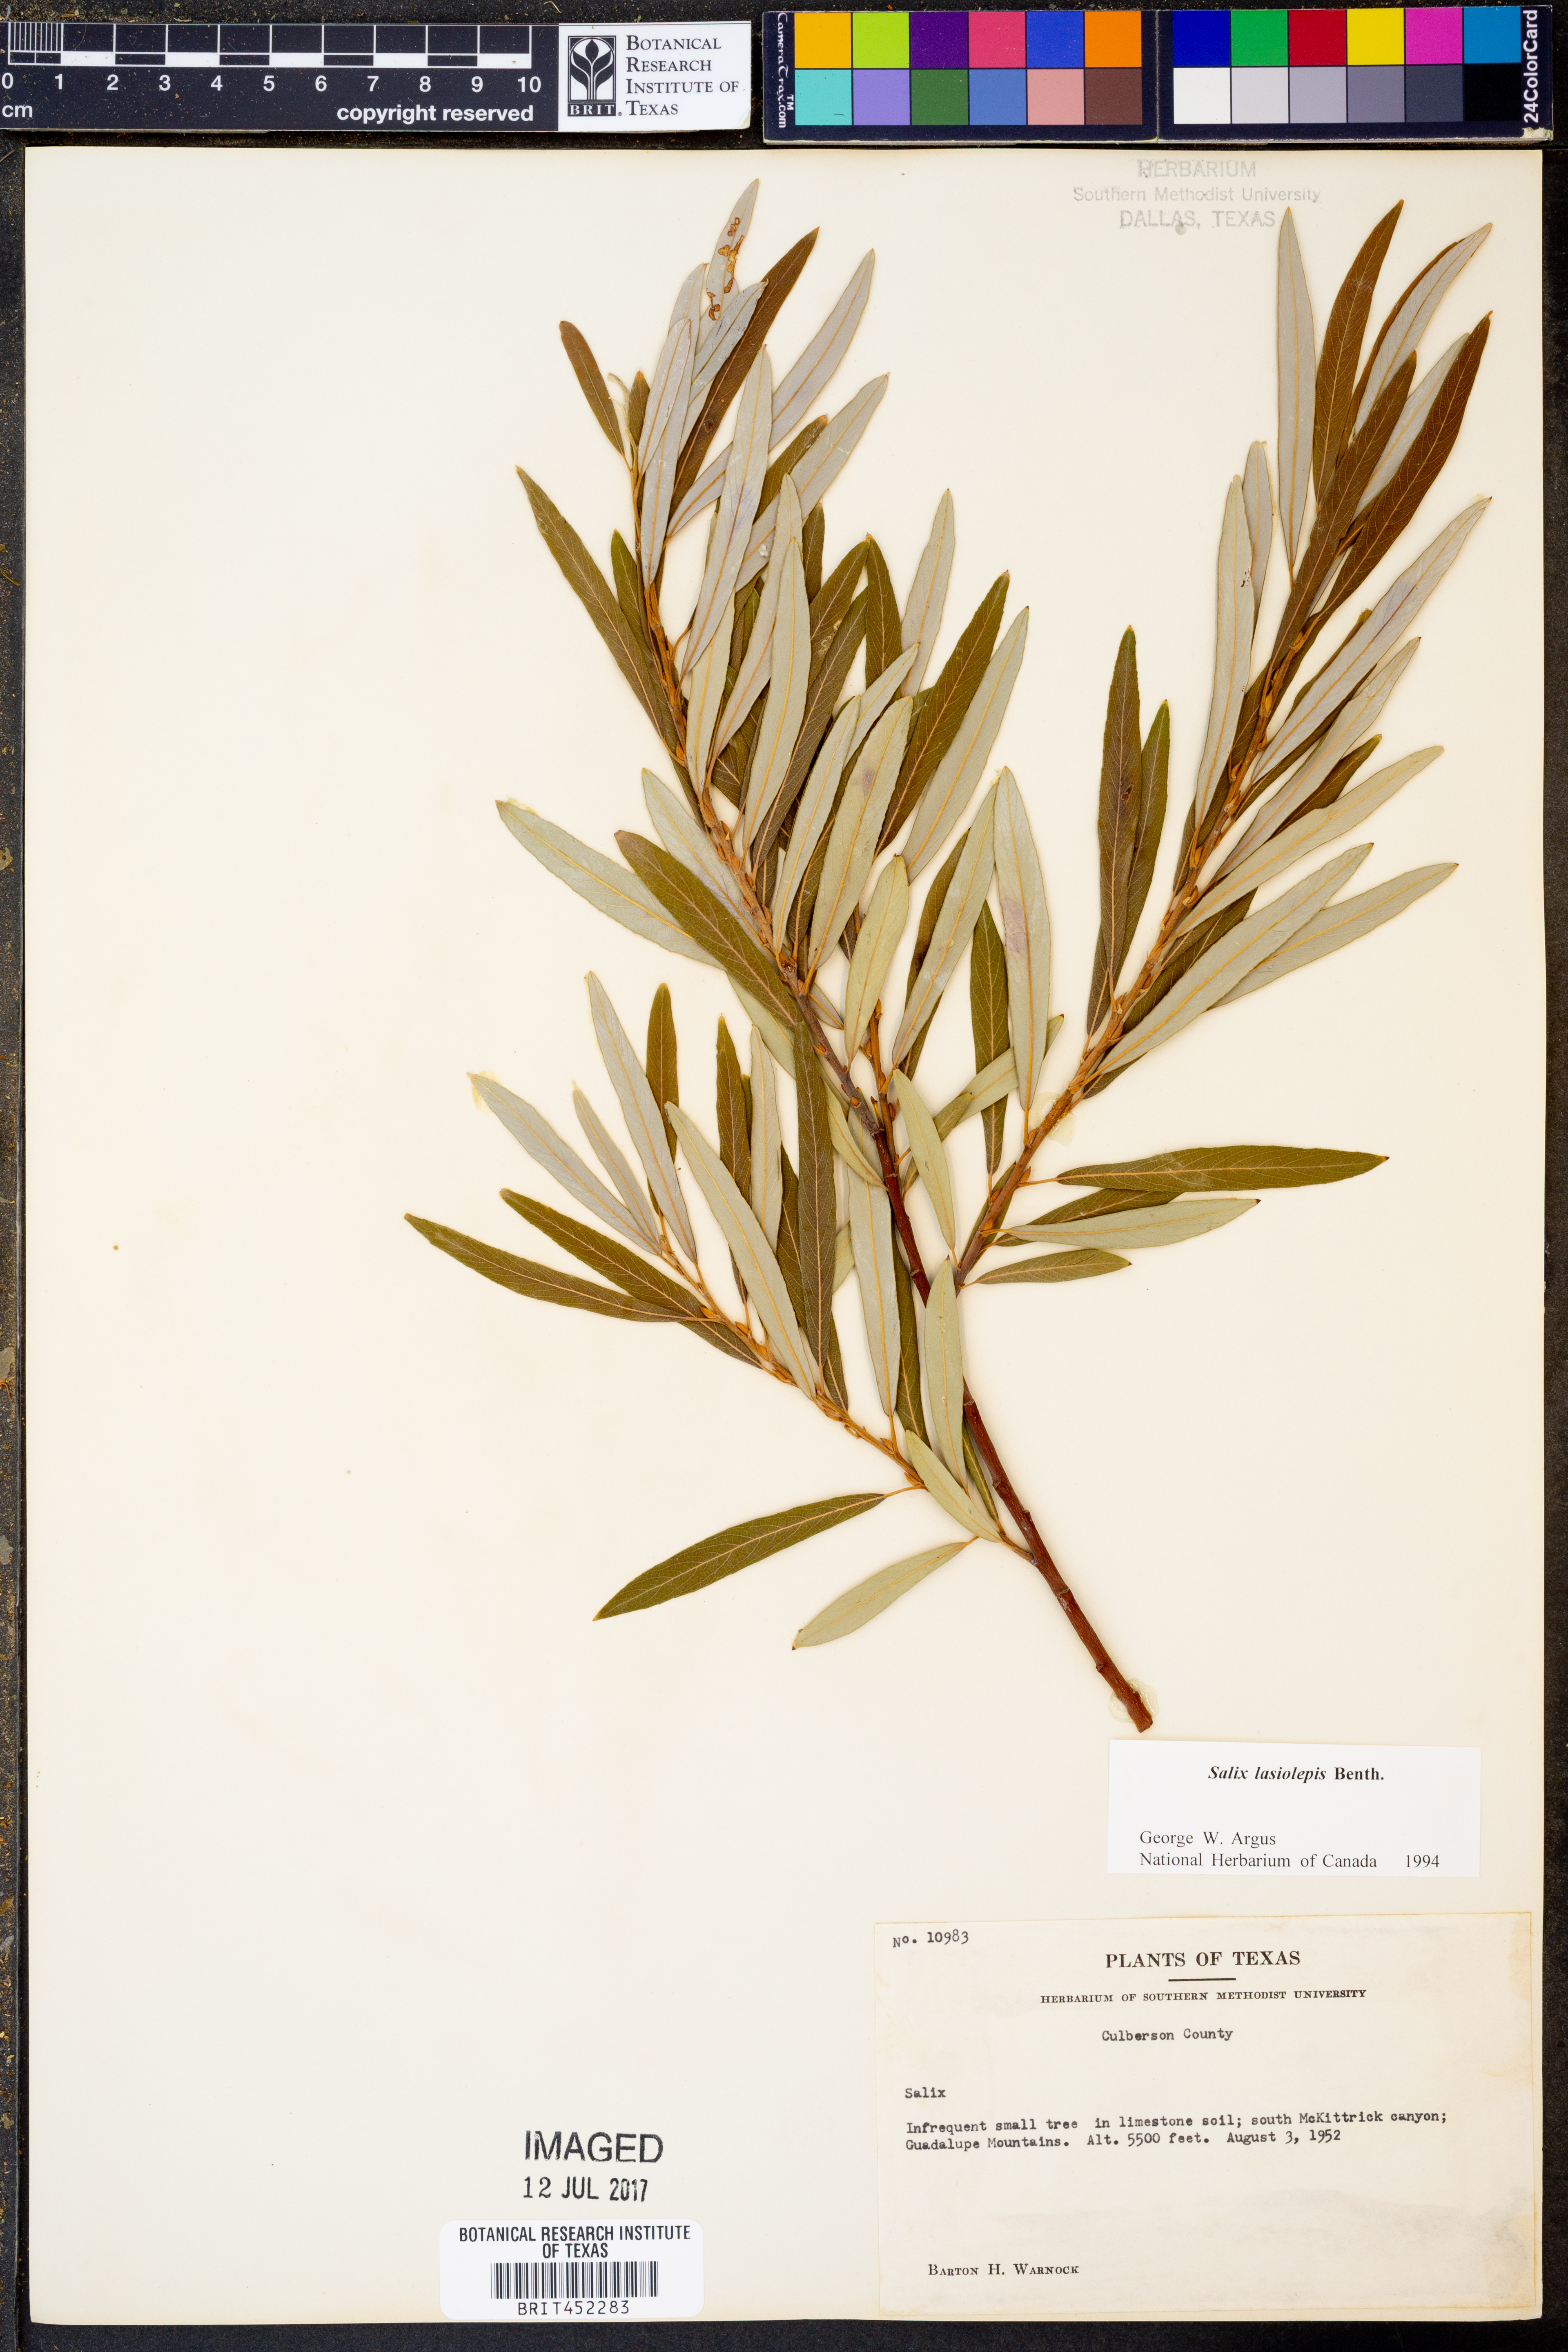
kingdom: Plantae
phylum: Tracheophyta
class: Magnoliopsida
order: Malpighiales
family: Salicaceae
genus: Salix
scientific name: Salix lasiolepis
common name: Arroyo willow
